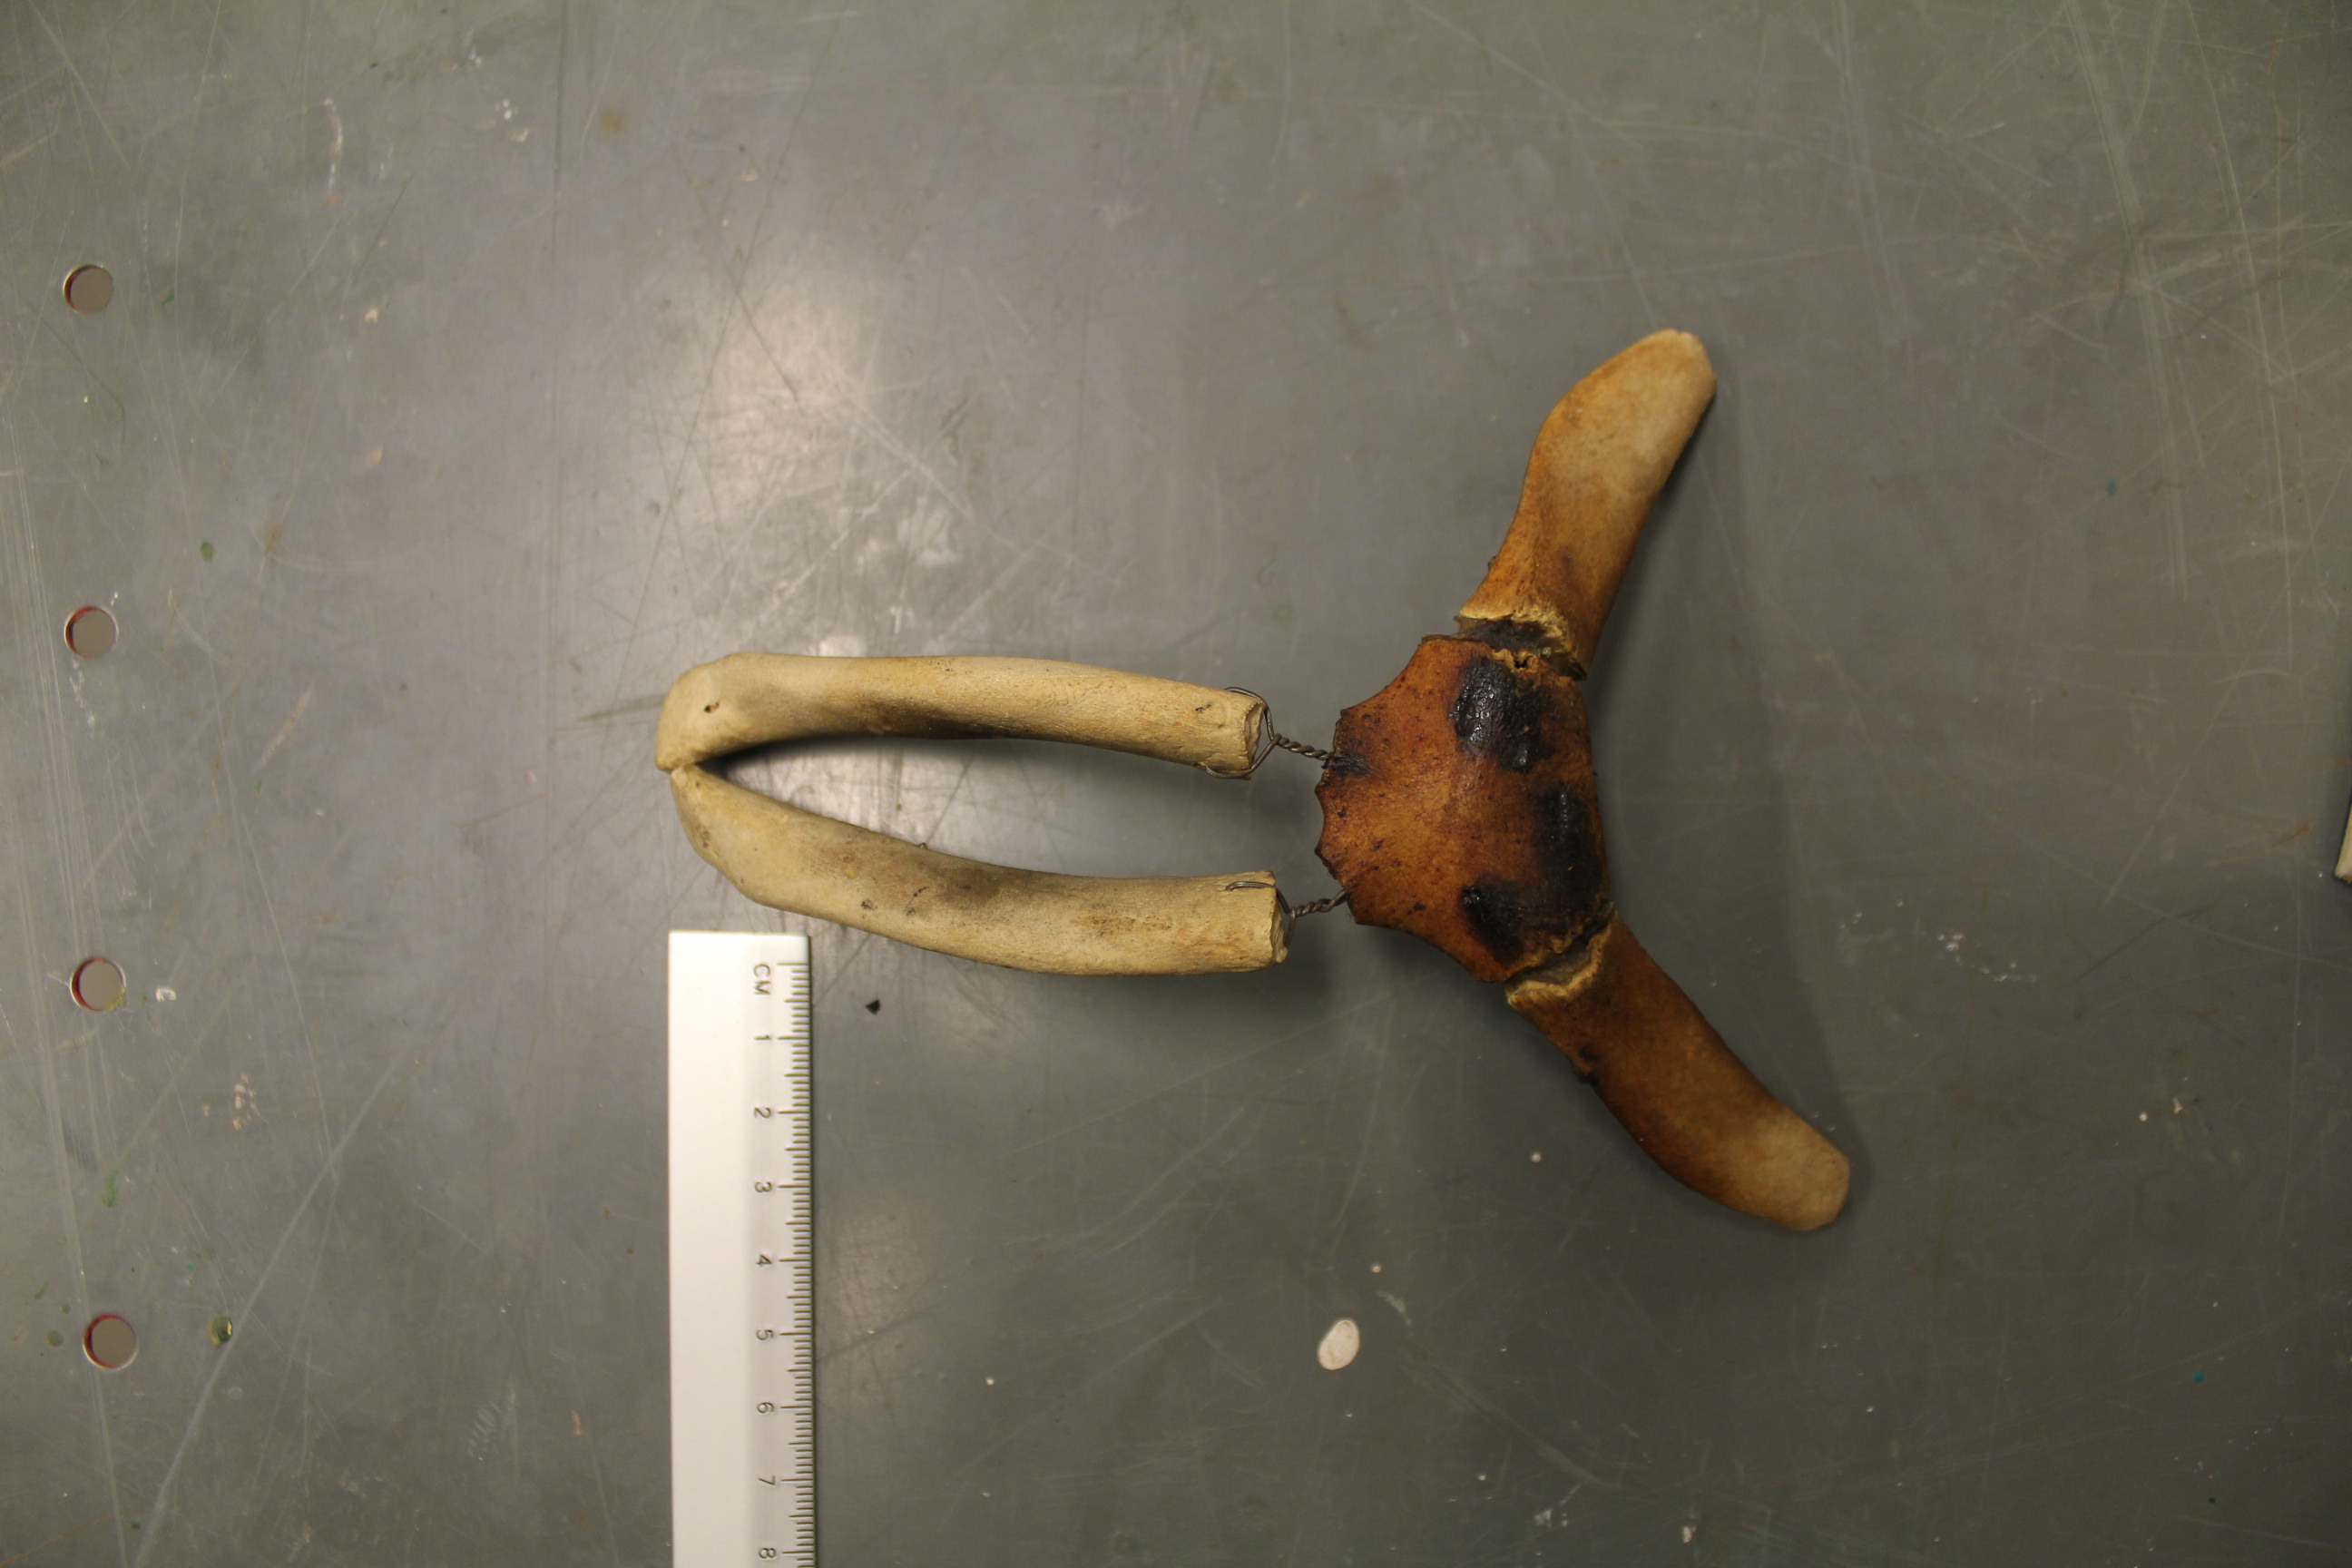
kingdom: Animalia
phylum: Chordata
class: Mammalia
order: Cetacea
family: Delphinidae
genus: Lagenorhynchus
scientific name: Lagenorhynchus albirostris
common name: White-beaked dolphin
